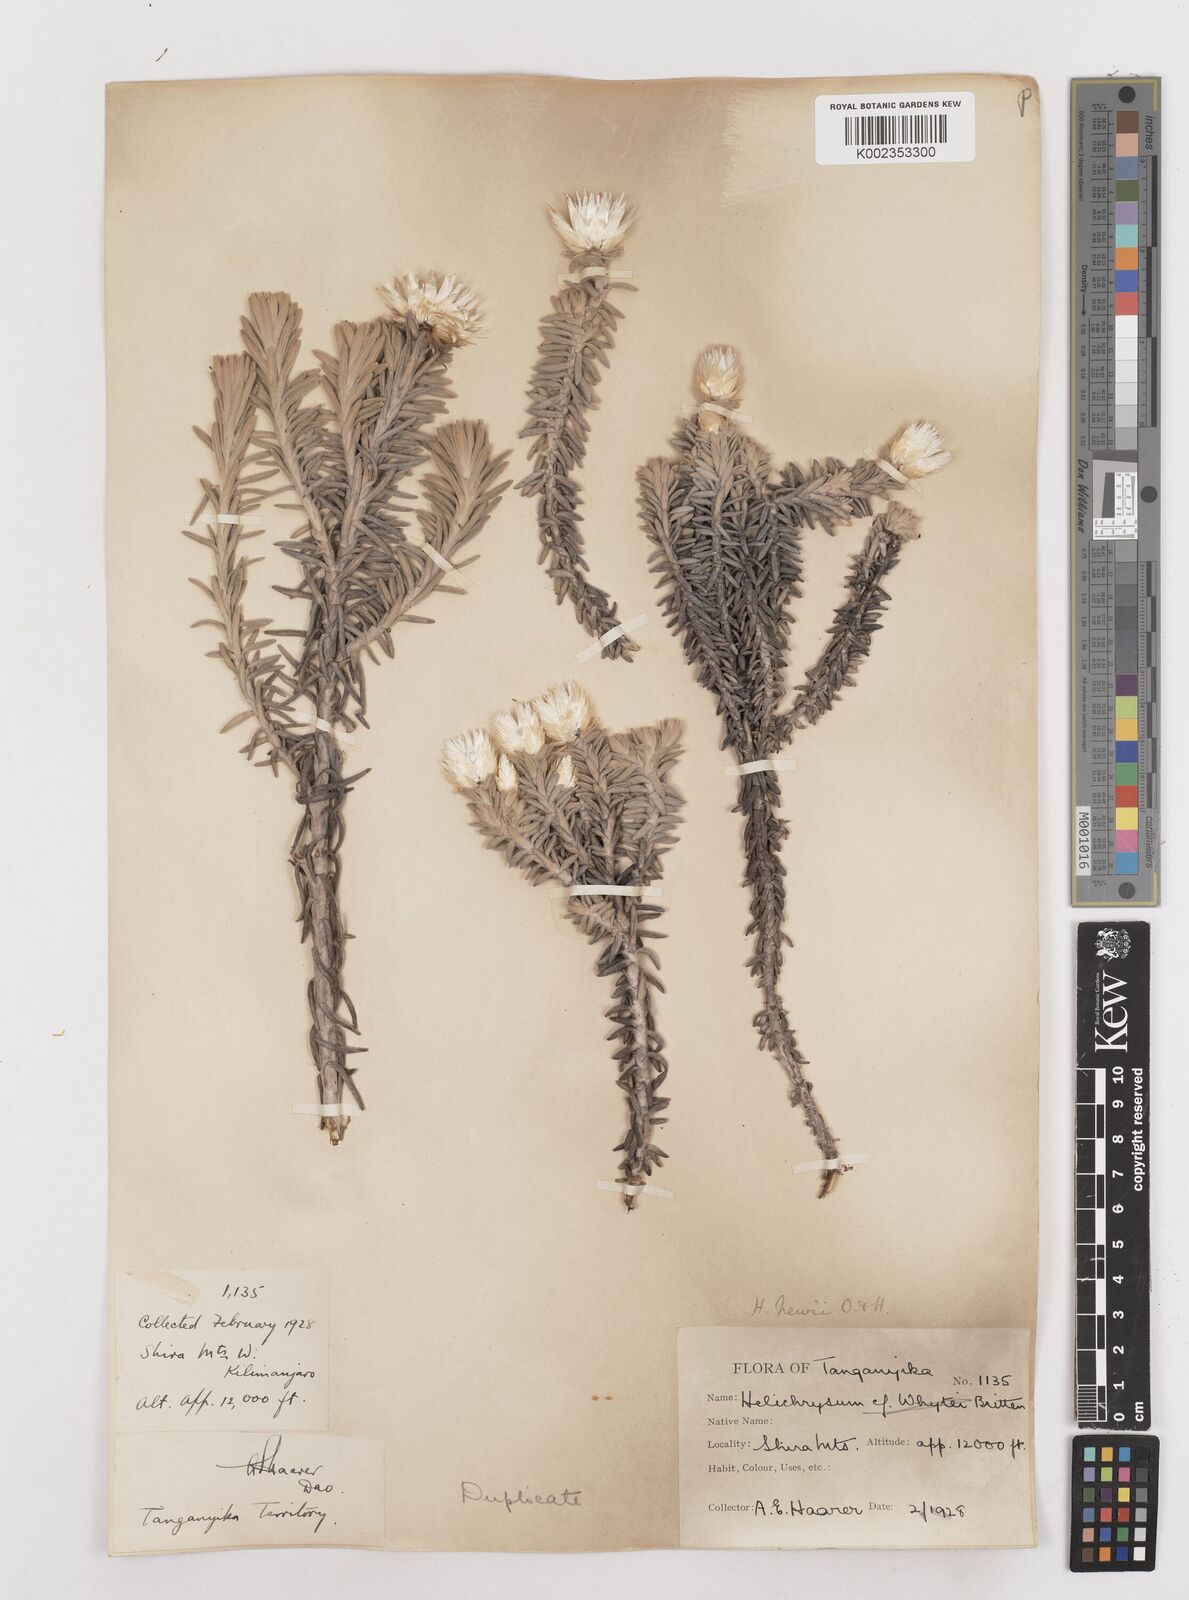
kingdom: Plantae
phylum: Tracheophyta
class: Magnoliopsida
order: Asterales
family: Asteraceae
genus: Helichrysum
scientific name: Helichrysum newii
